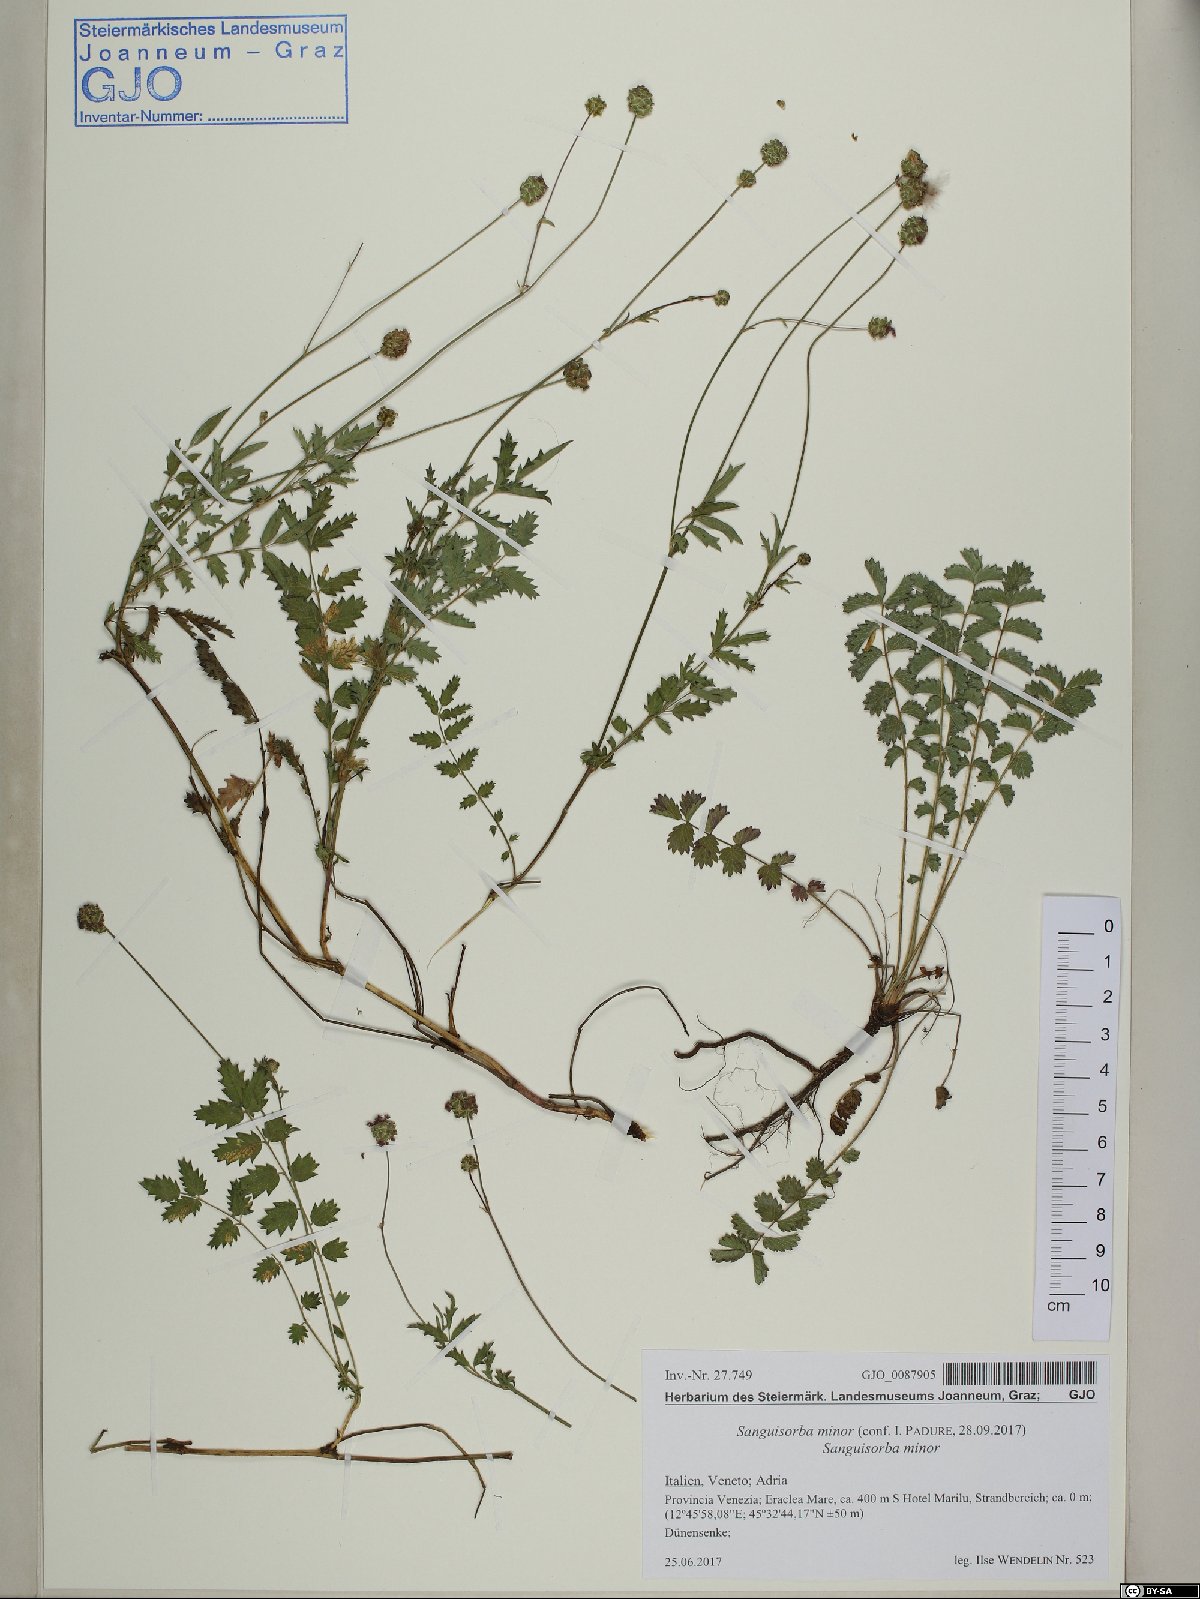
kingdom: Plantae
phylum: Tracheophyta
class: Magnoliopsida
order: Rosales
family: Rosaceae
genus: Poterium
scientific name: Poterium sanguisorba
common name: Salad burnet
